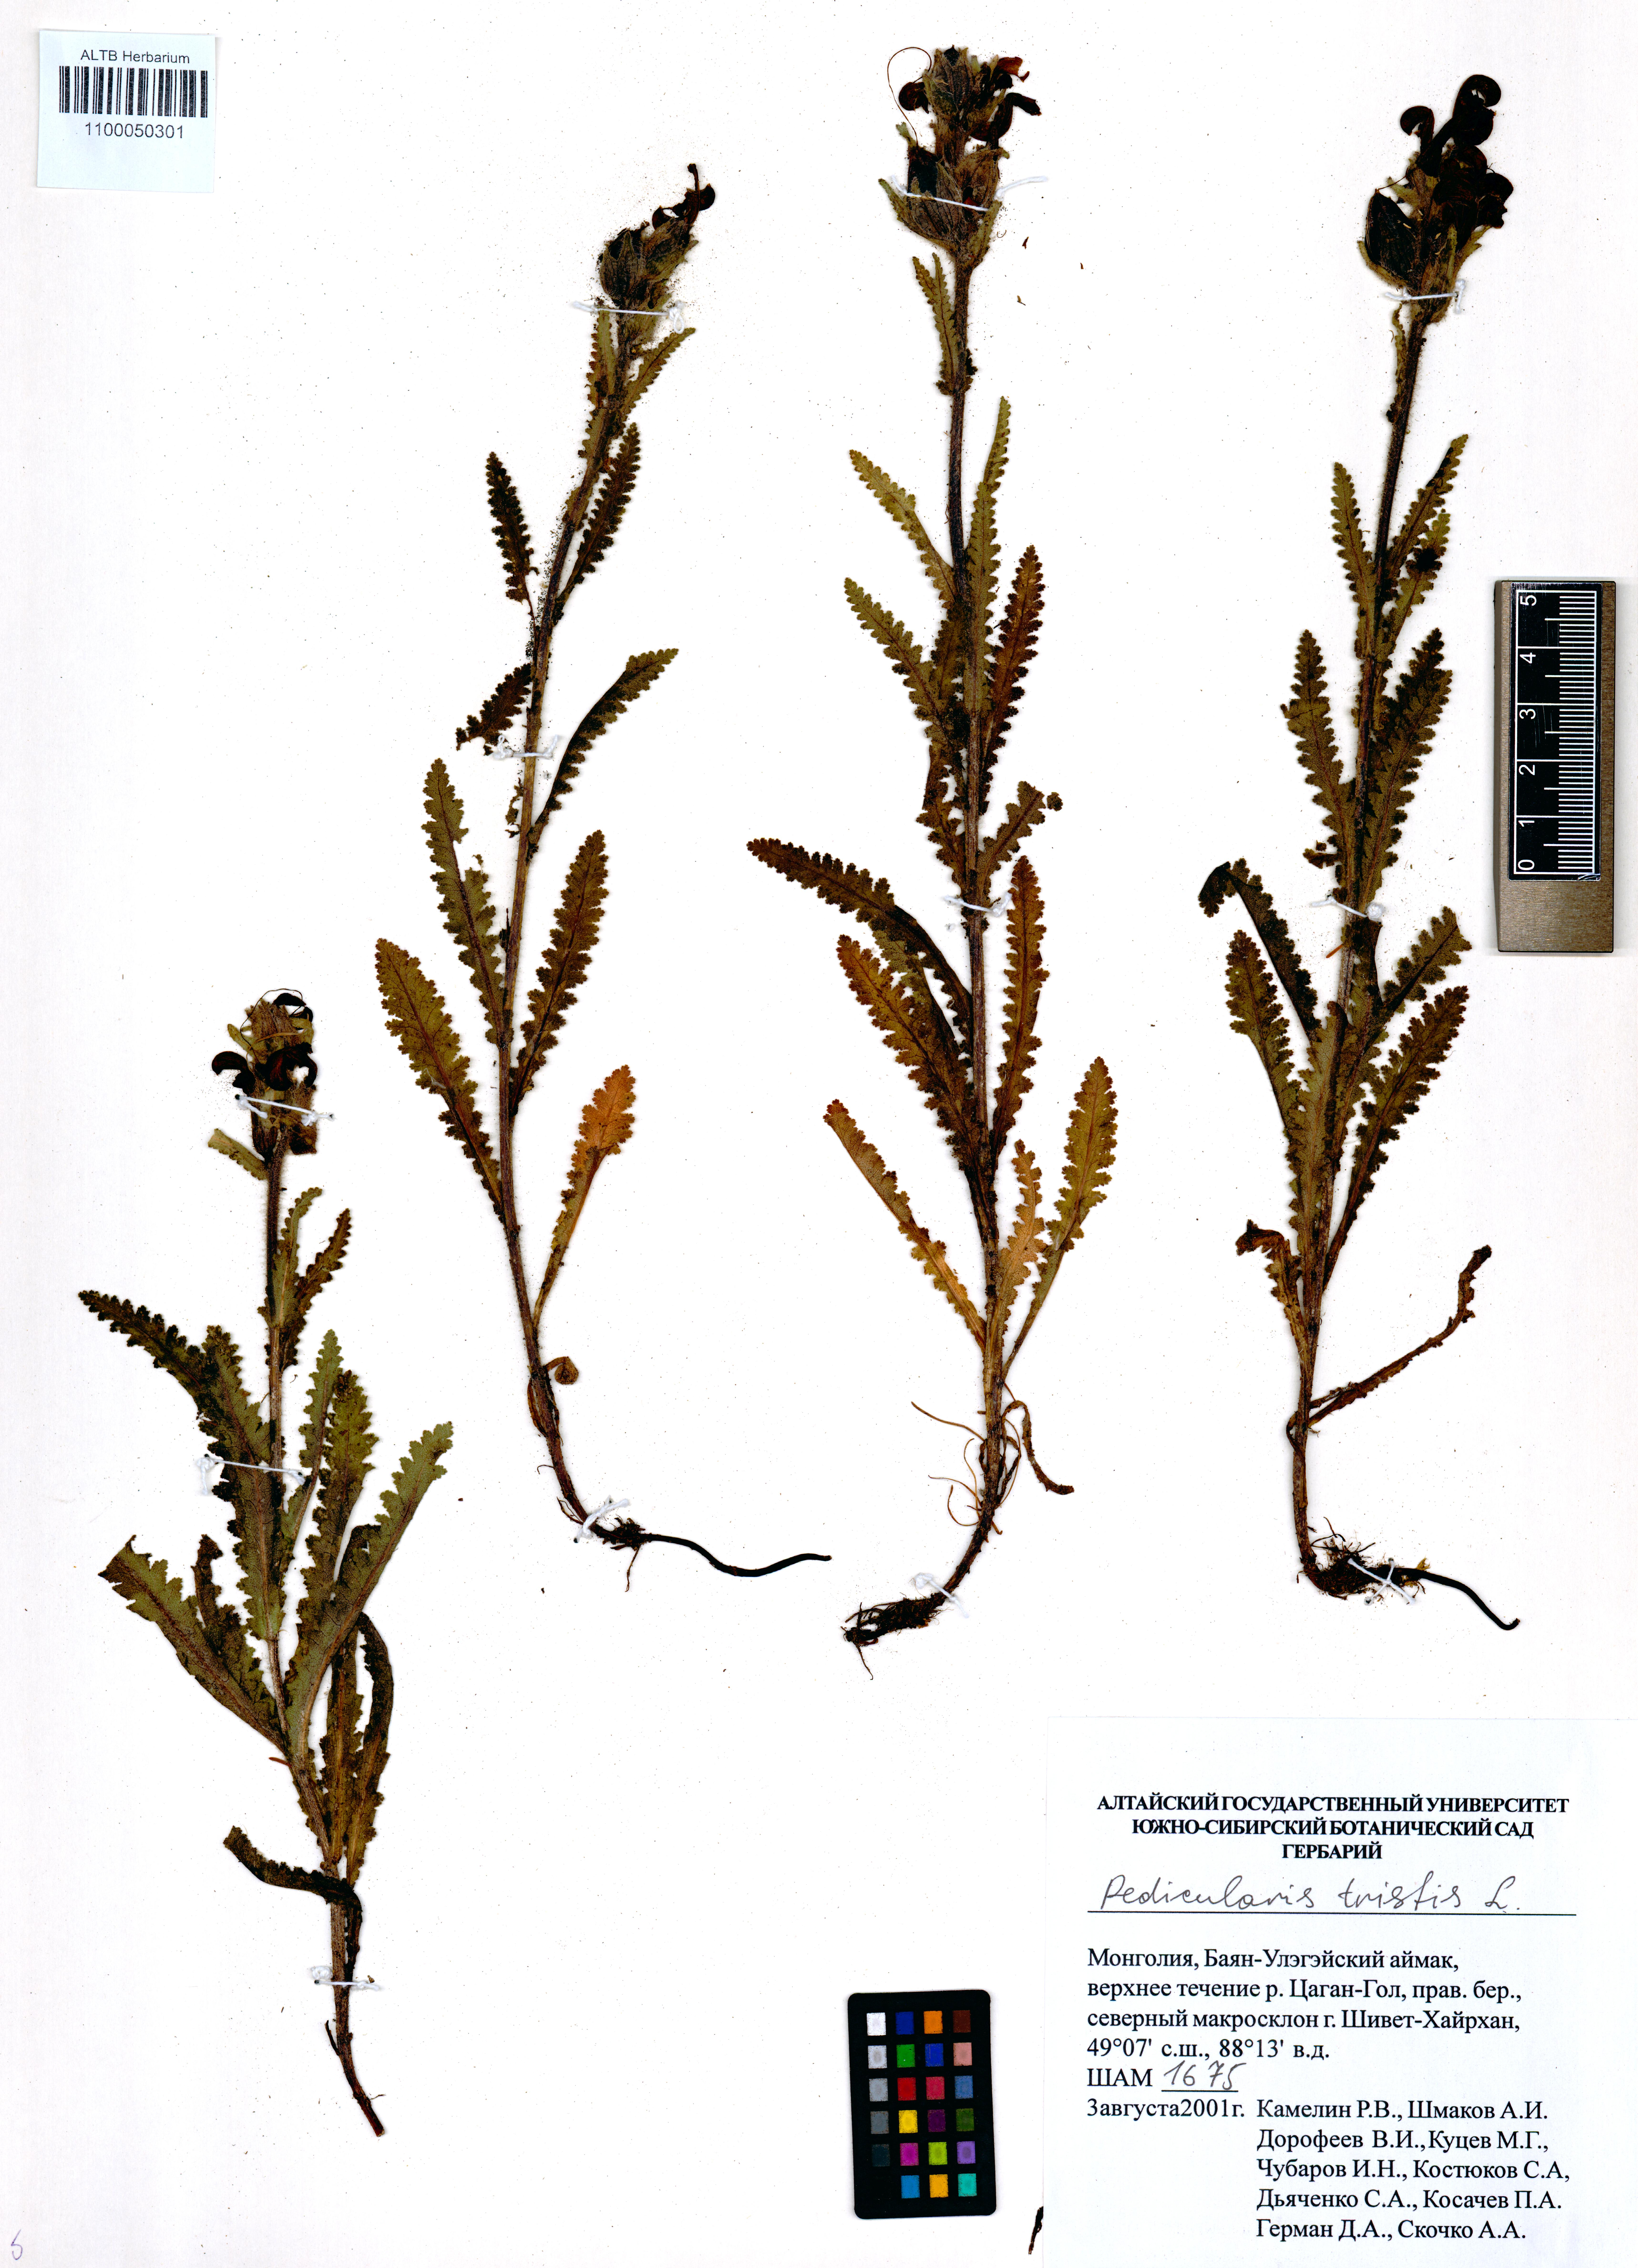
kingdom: Plantae
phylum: Tracheophyta
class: Magnoliopsida
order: Lamiales
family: Orobanchaceae
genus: Pedicularis
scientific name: Pedicularis tristis
